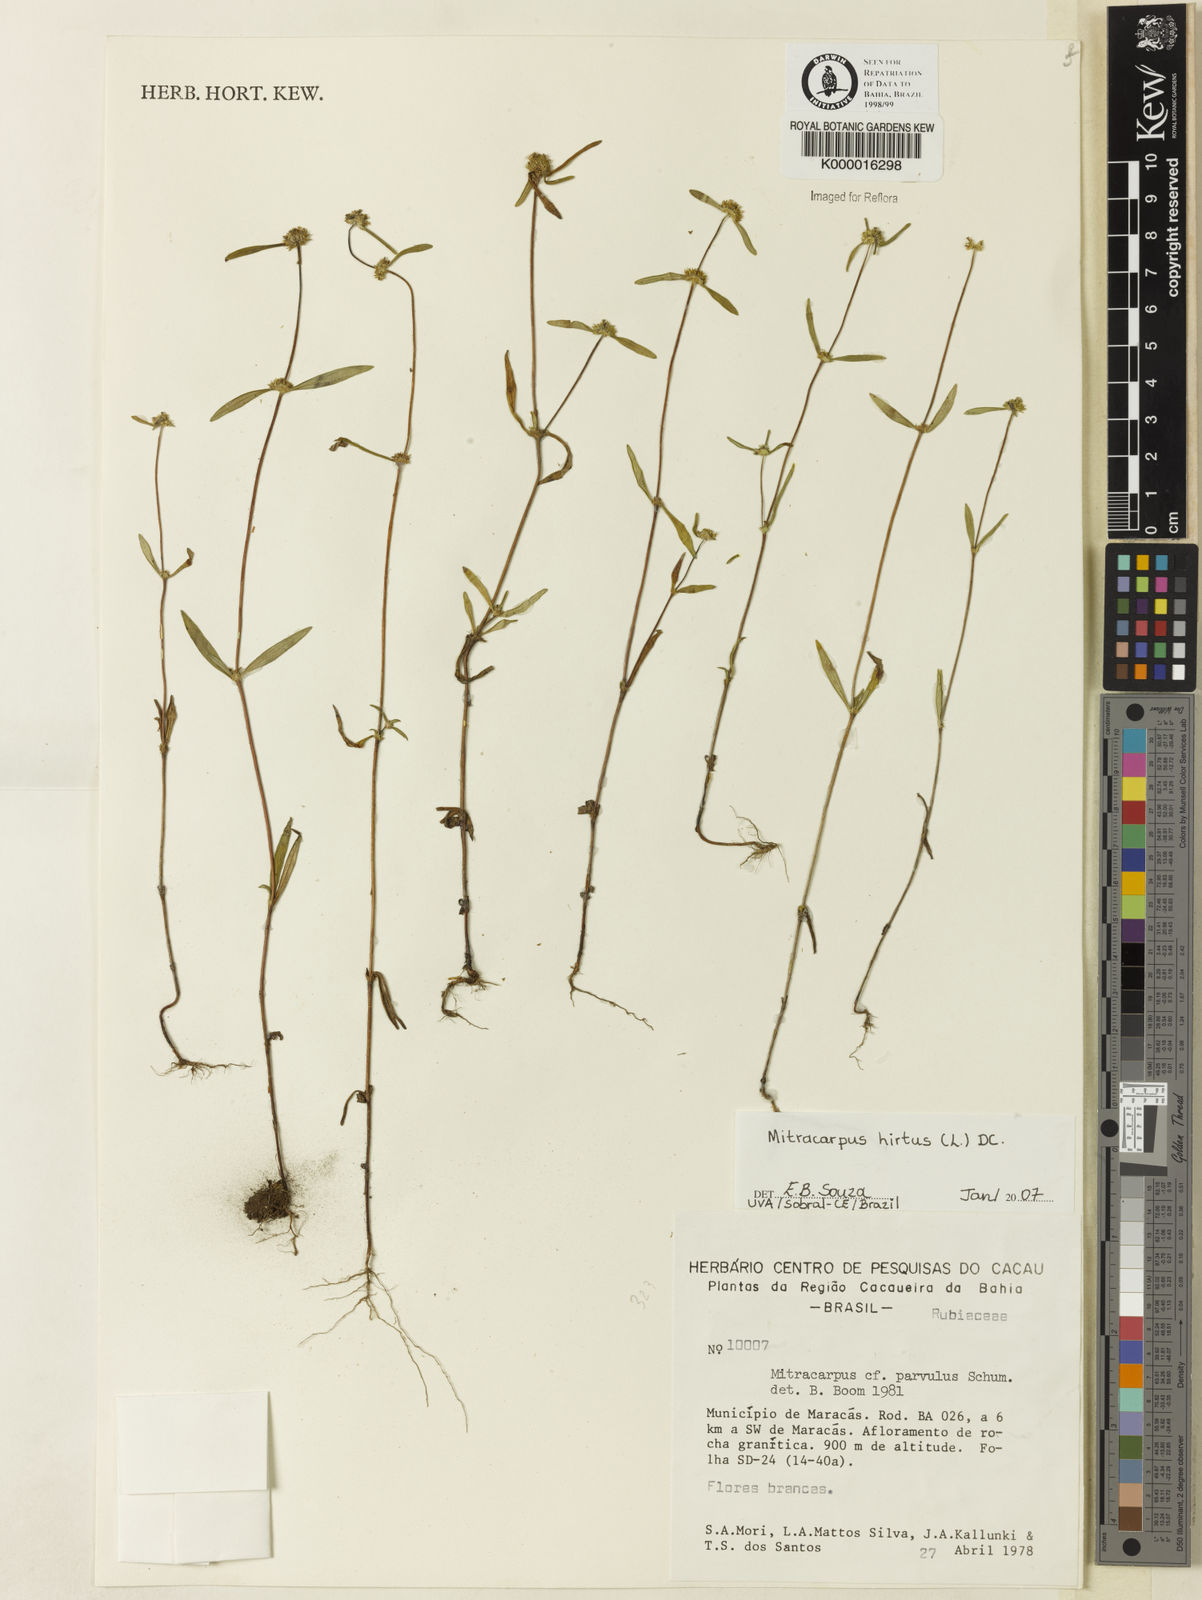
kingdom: Plantae
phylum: Tracheophyta
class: Magnoliopsida
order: Gentianales
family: Rubiaceae
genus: Mitracarpus
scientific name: Mitracarpus hirtus
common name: Tropical girdlepod
